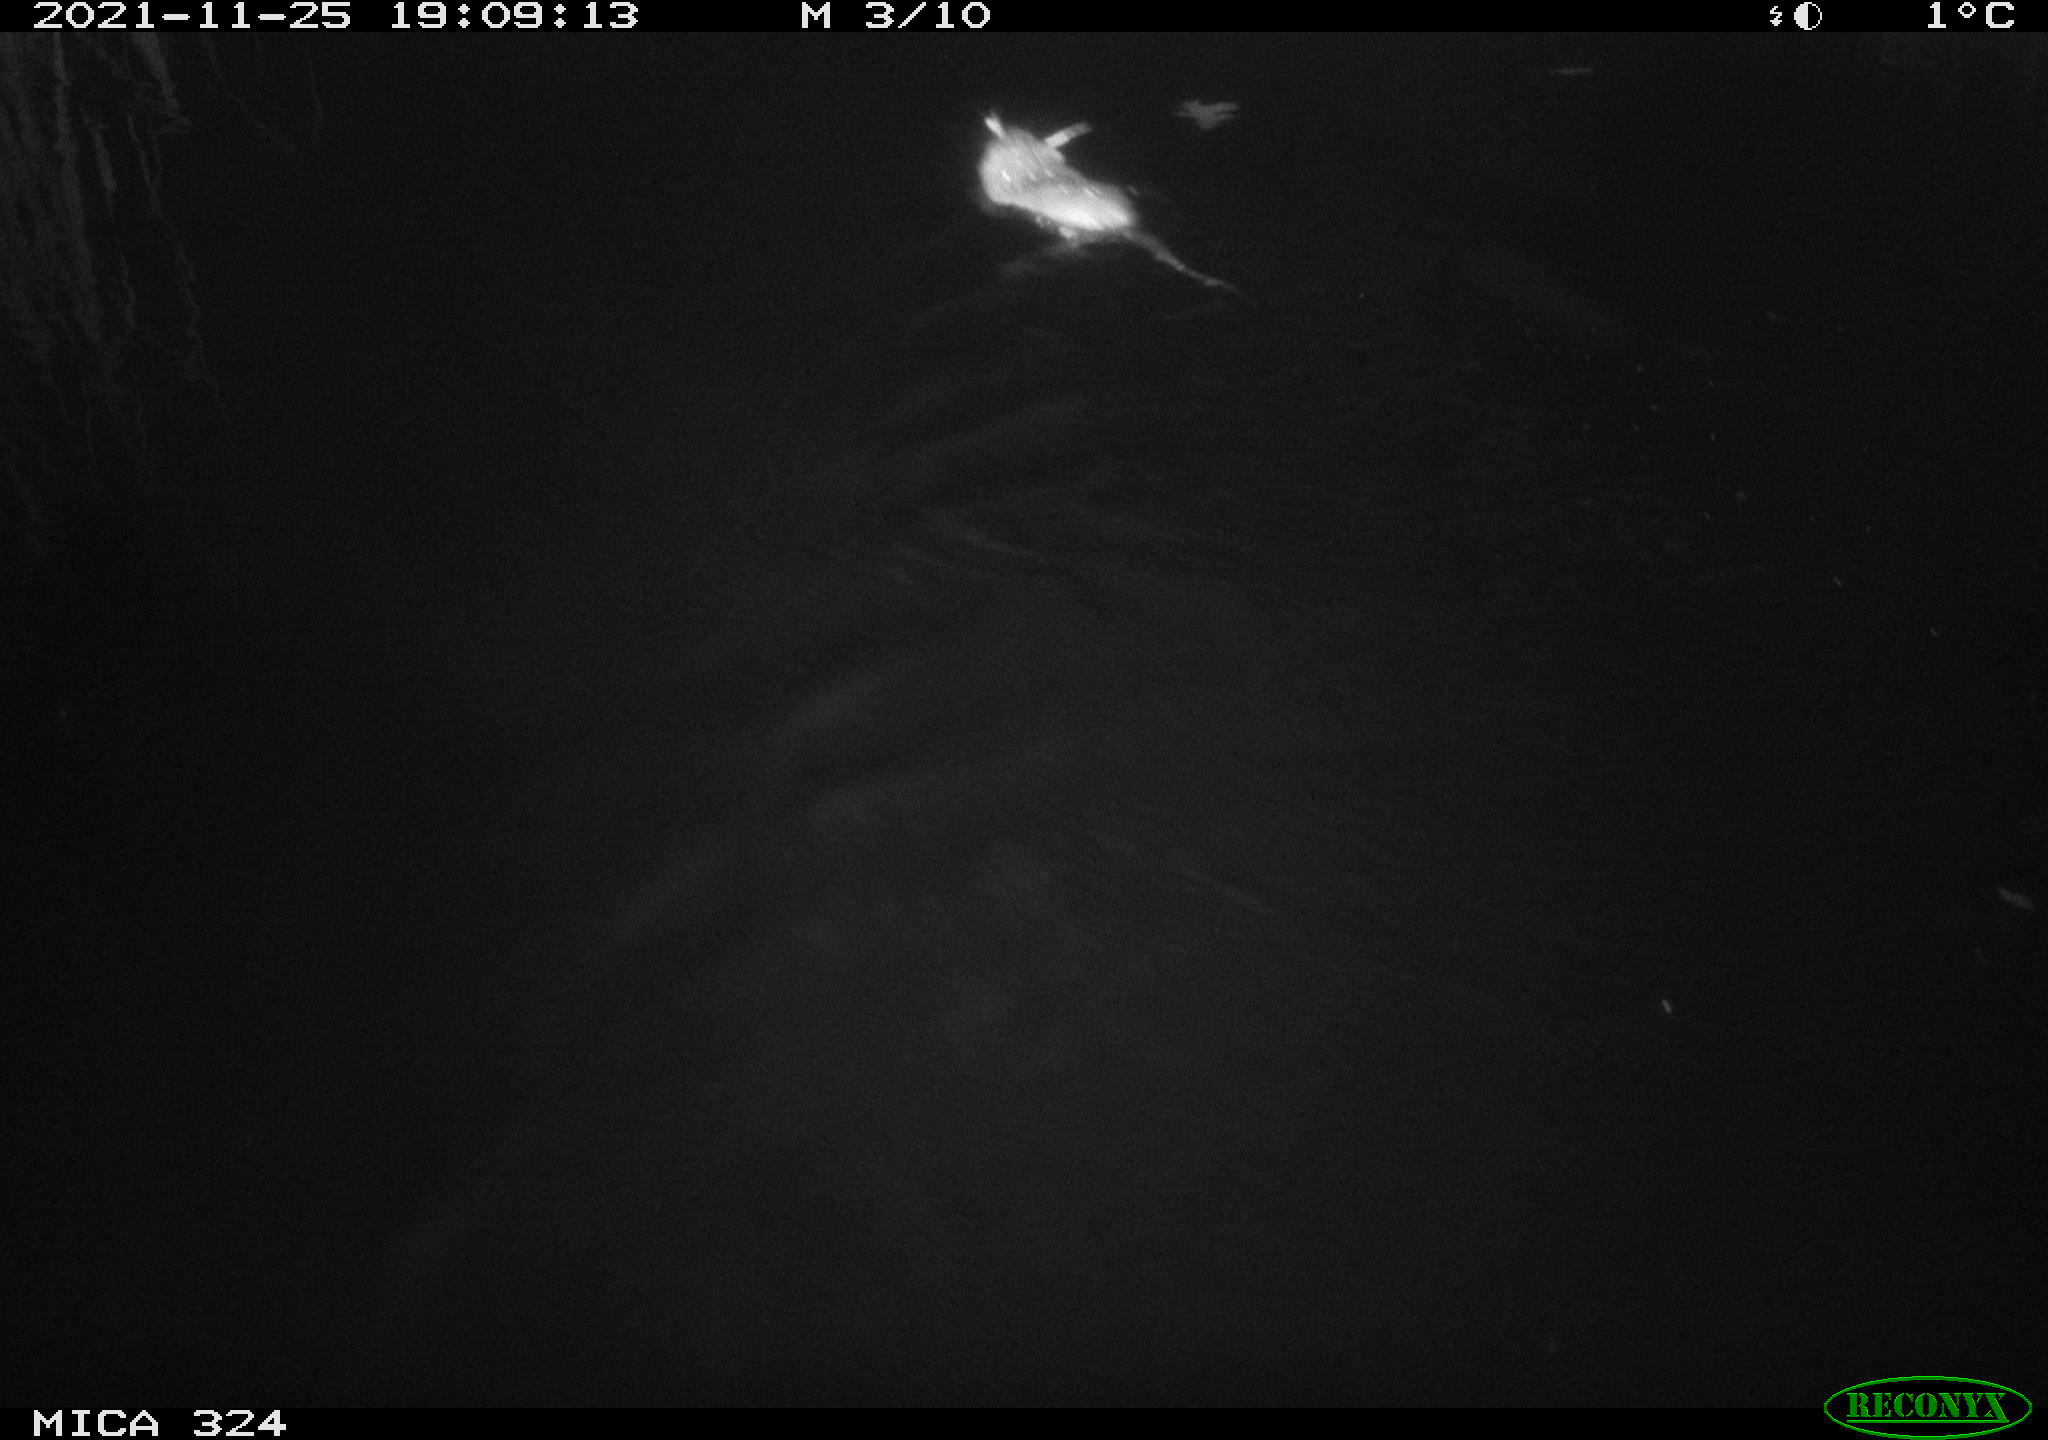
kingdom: Animalia
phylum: Chordata
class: Mammalia
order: Rodentia
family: Cricetidae
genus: Ondatra
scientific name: Ondatra zibethicus
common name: Muskrat
